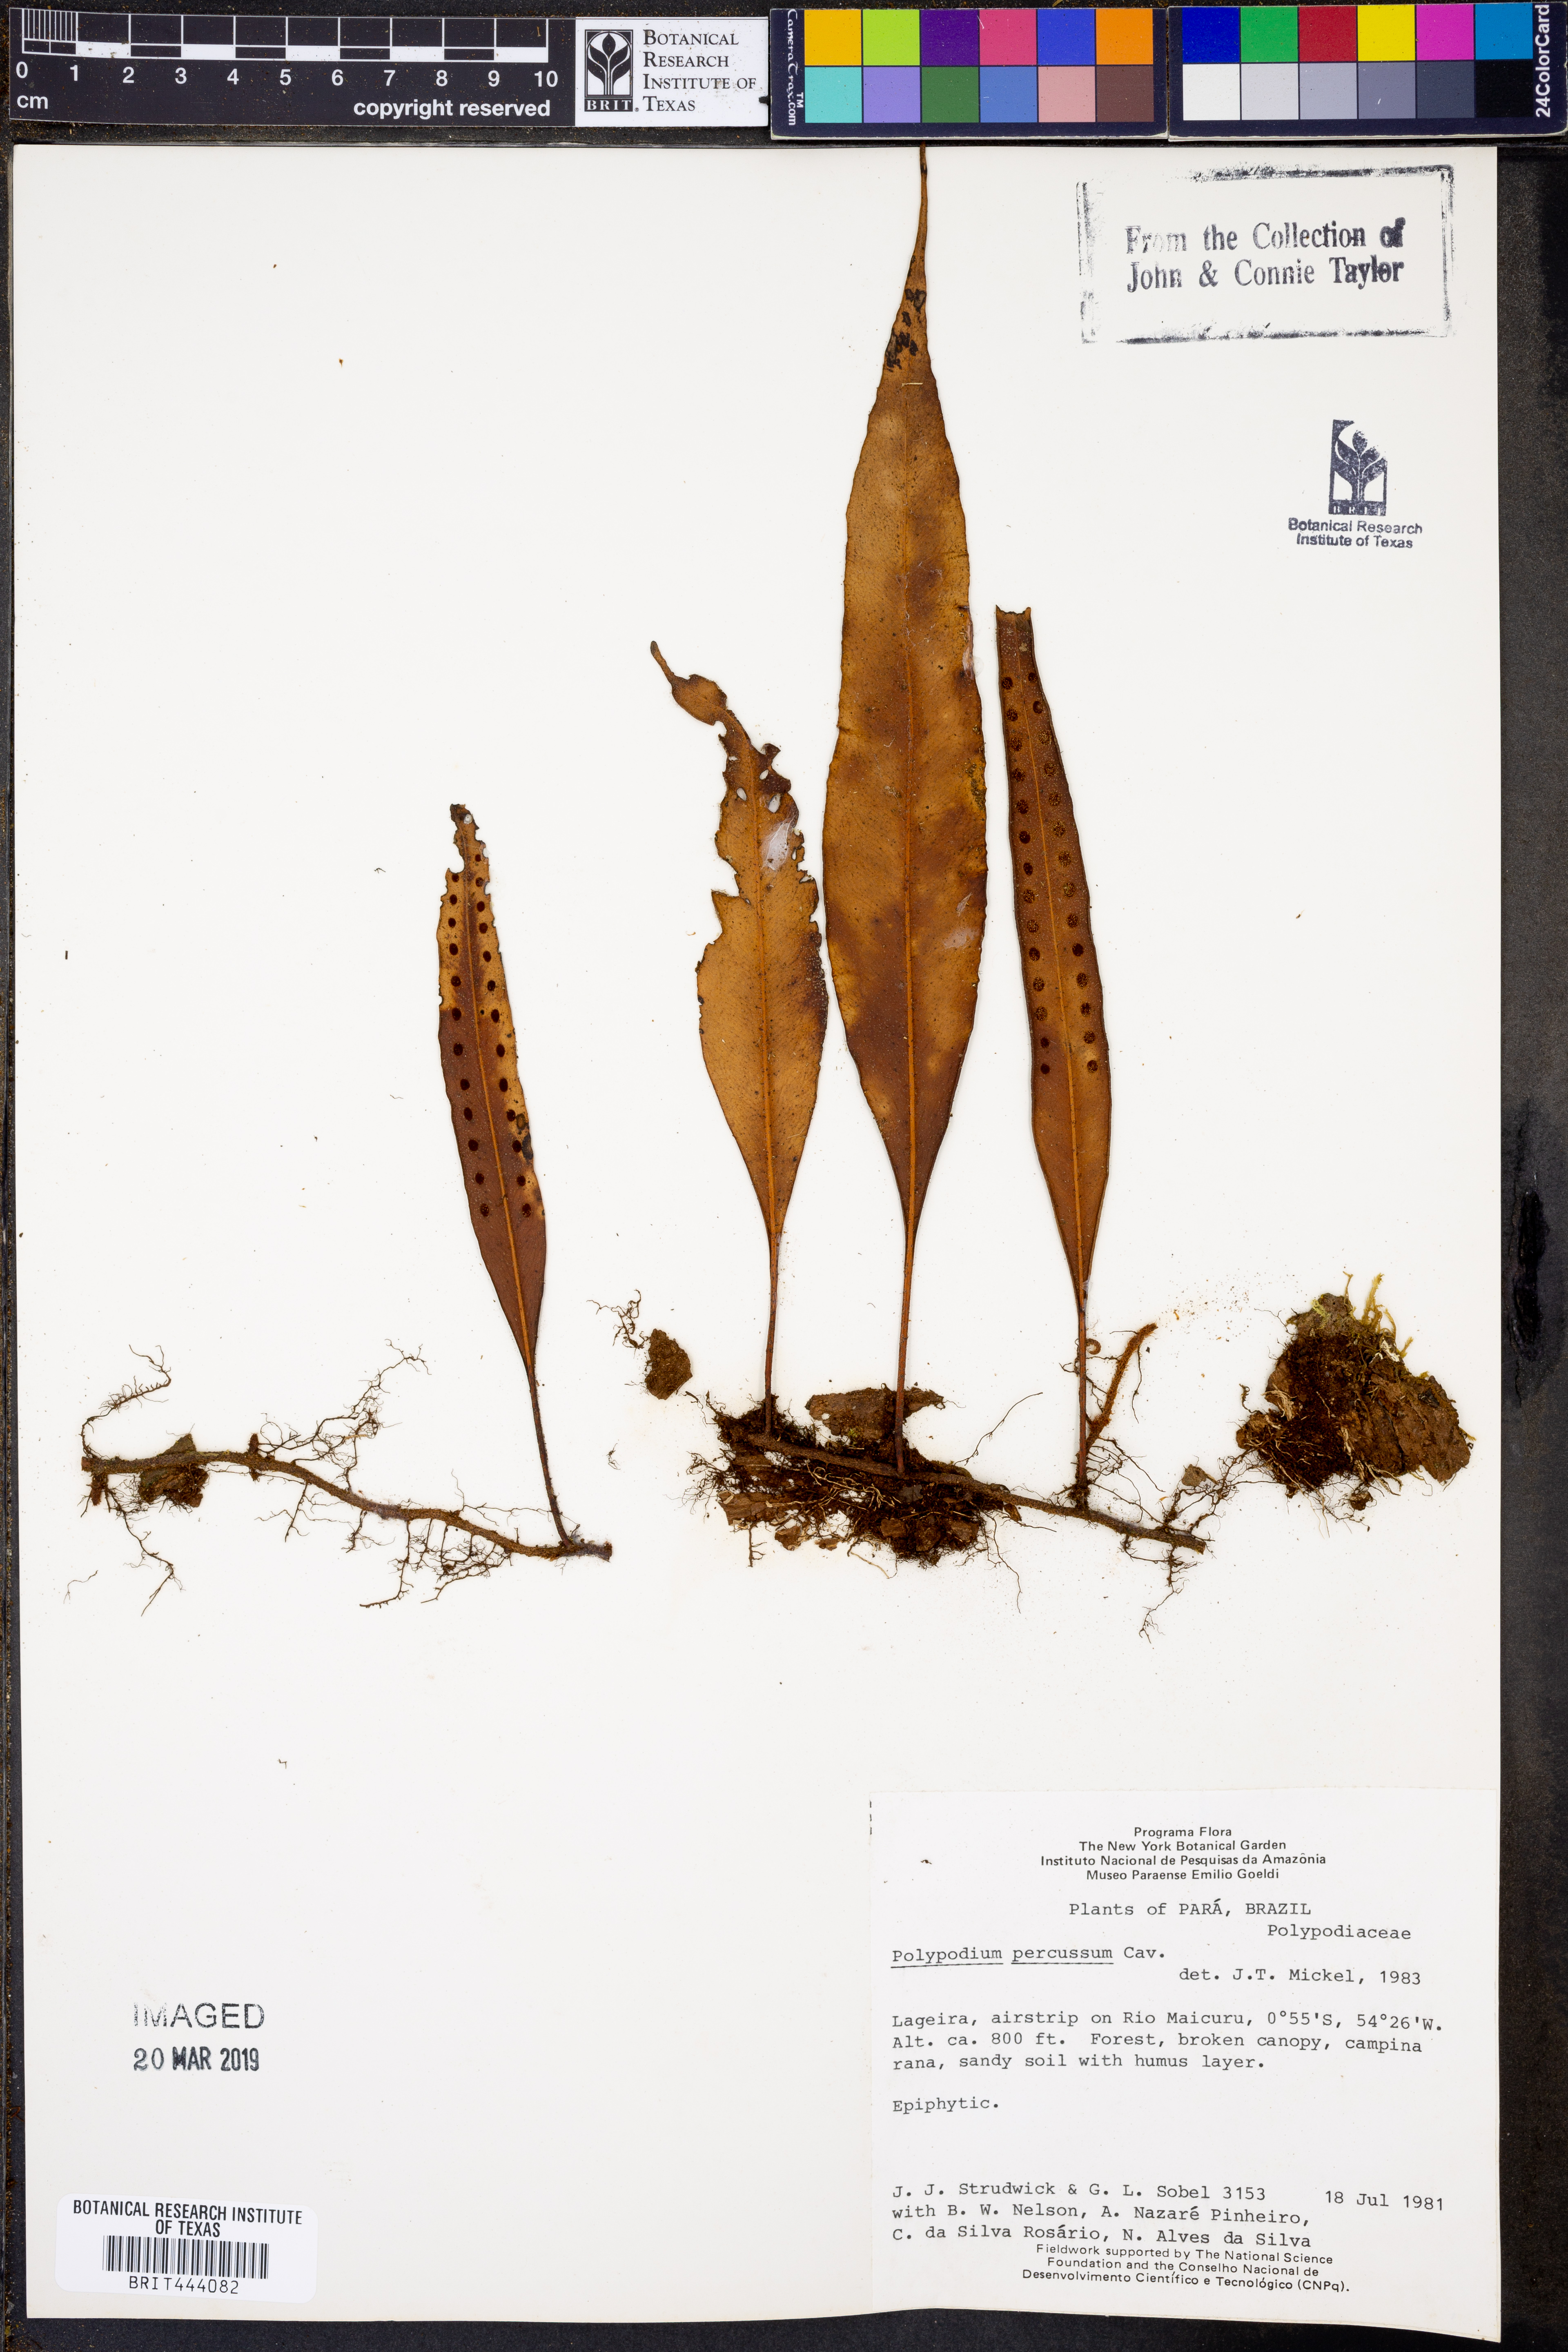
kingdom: Plantae
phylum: Tracheophyta
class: Polypodiopsida
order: Polypodiales
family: Polypodiaceae
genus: Microgramma
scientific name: Microgramma percussa
